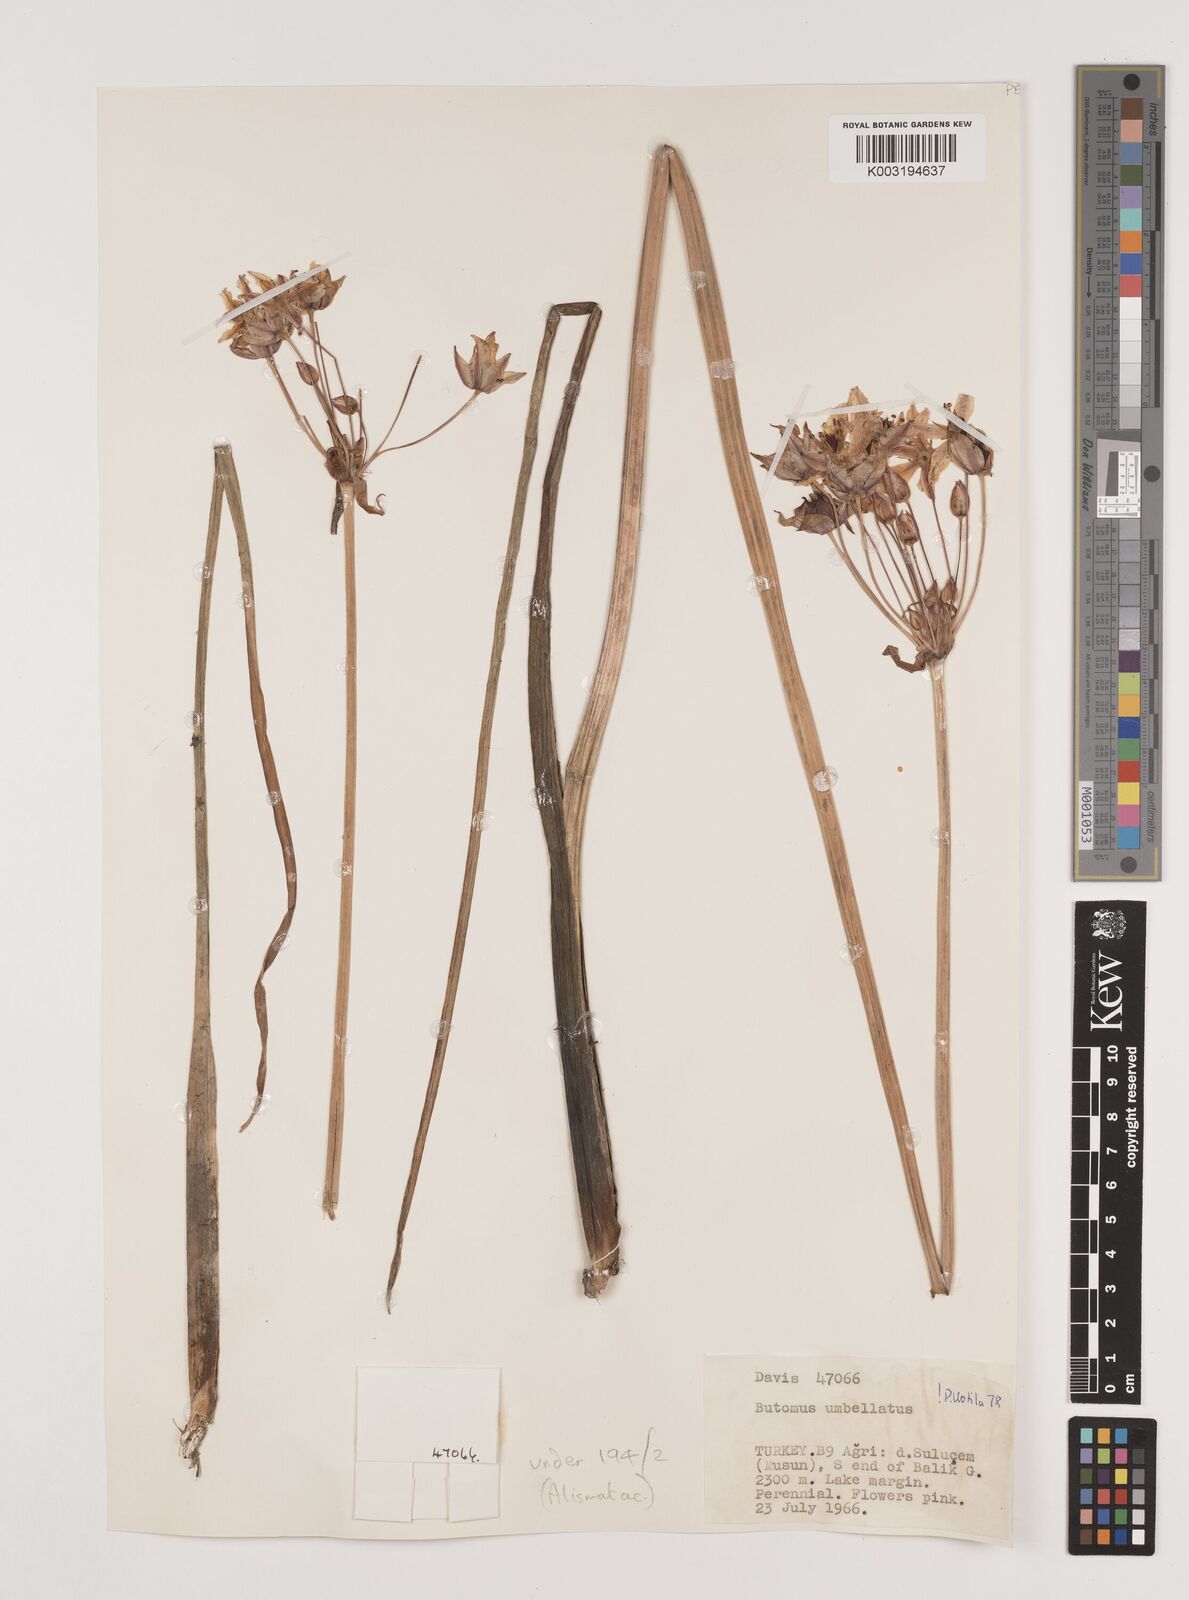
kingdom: Plantae
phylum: Tracheophyta
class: Liliopsida
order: Alismatales
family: Butomaceae
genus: Butomus
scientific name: Butomus umbellatus
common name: Flowering-rush
